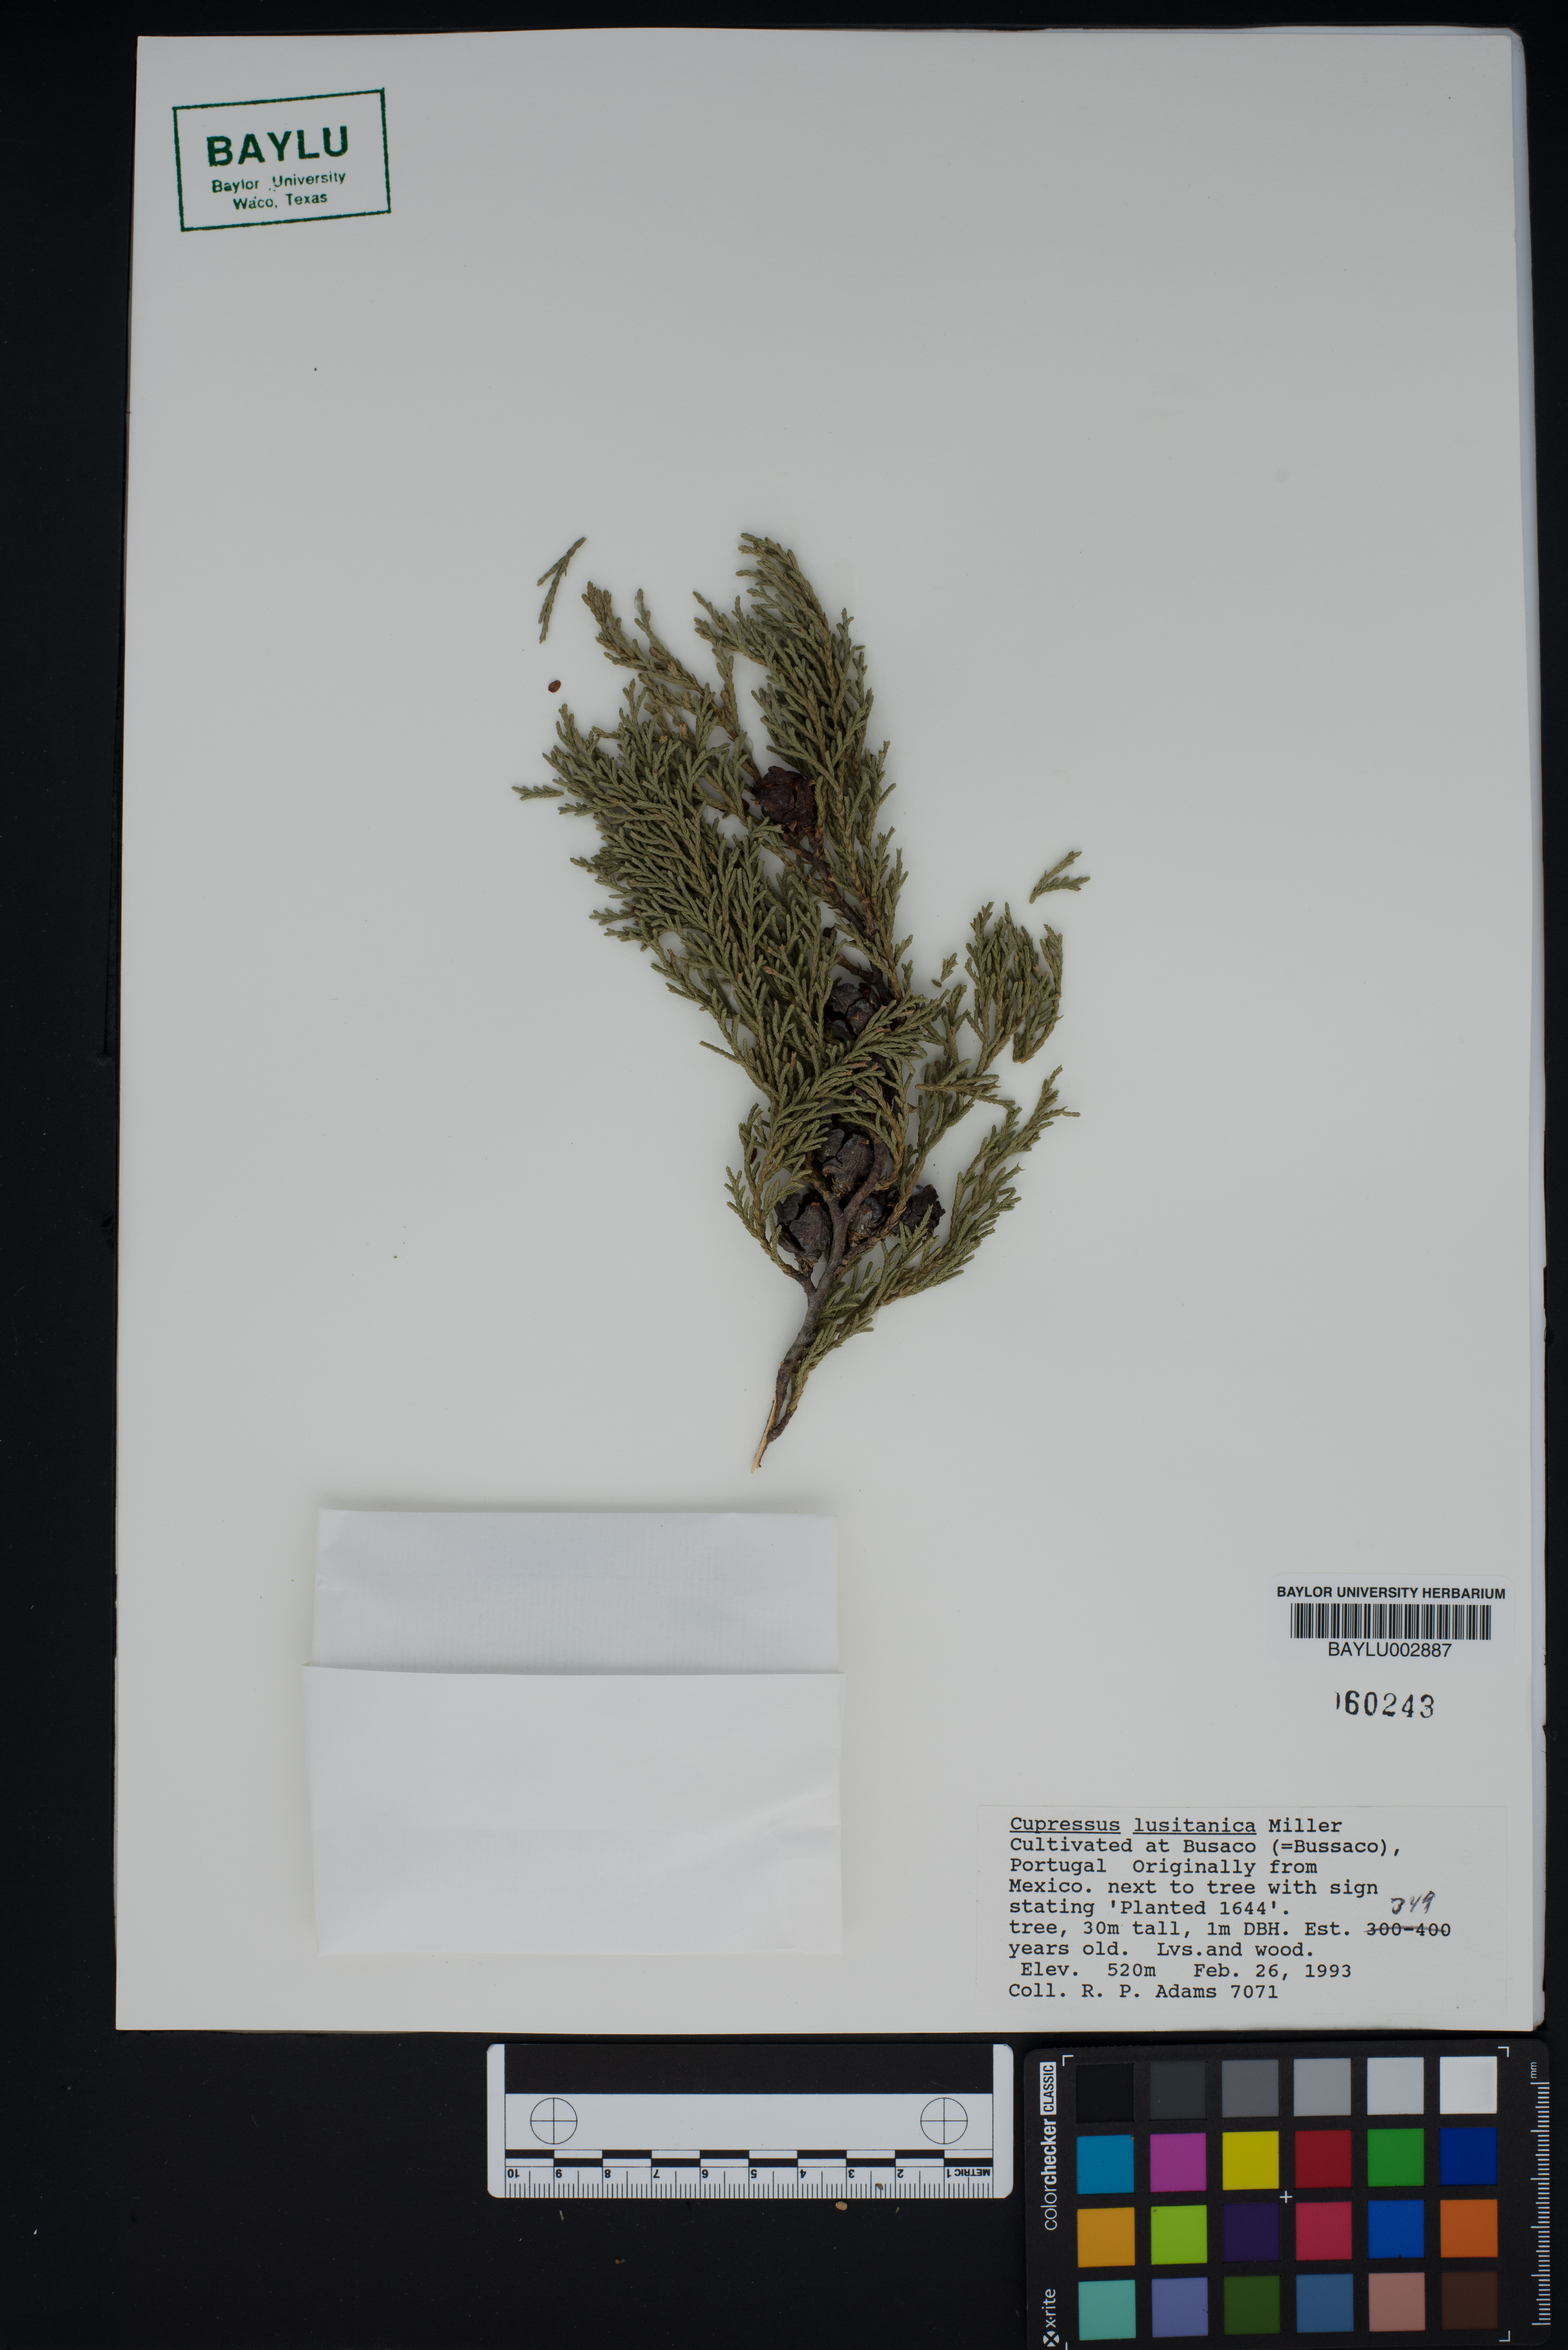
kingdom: Plantae
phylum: Tracheophyta
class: Pinopsida
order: Pinales
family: Cupressaceae
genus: Cupressus
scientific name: Cupressus lusitanica
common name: Mexican cypress
